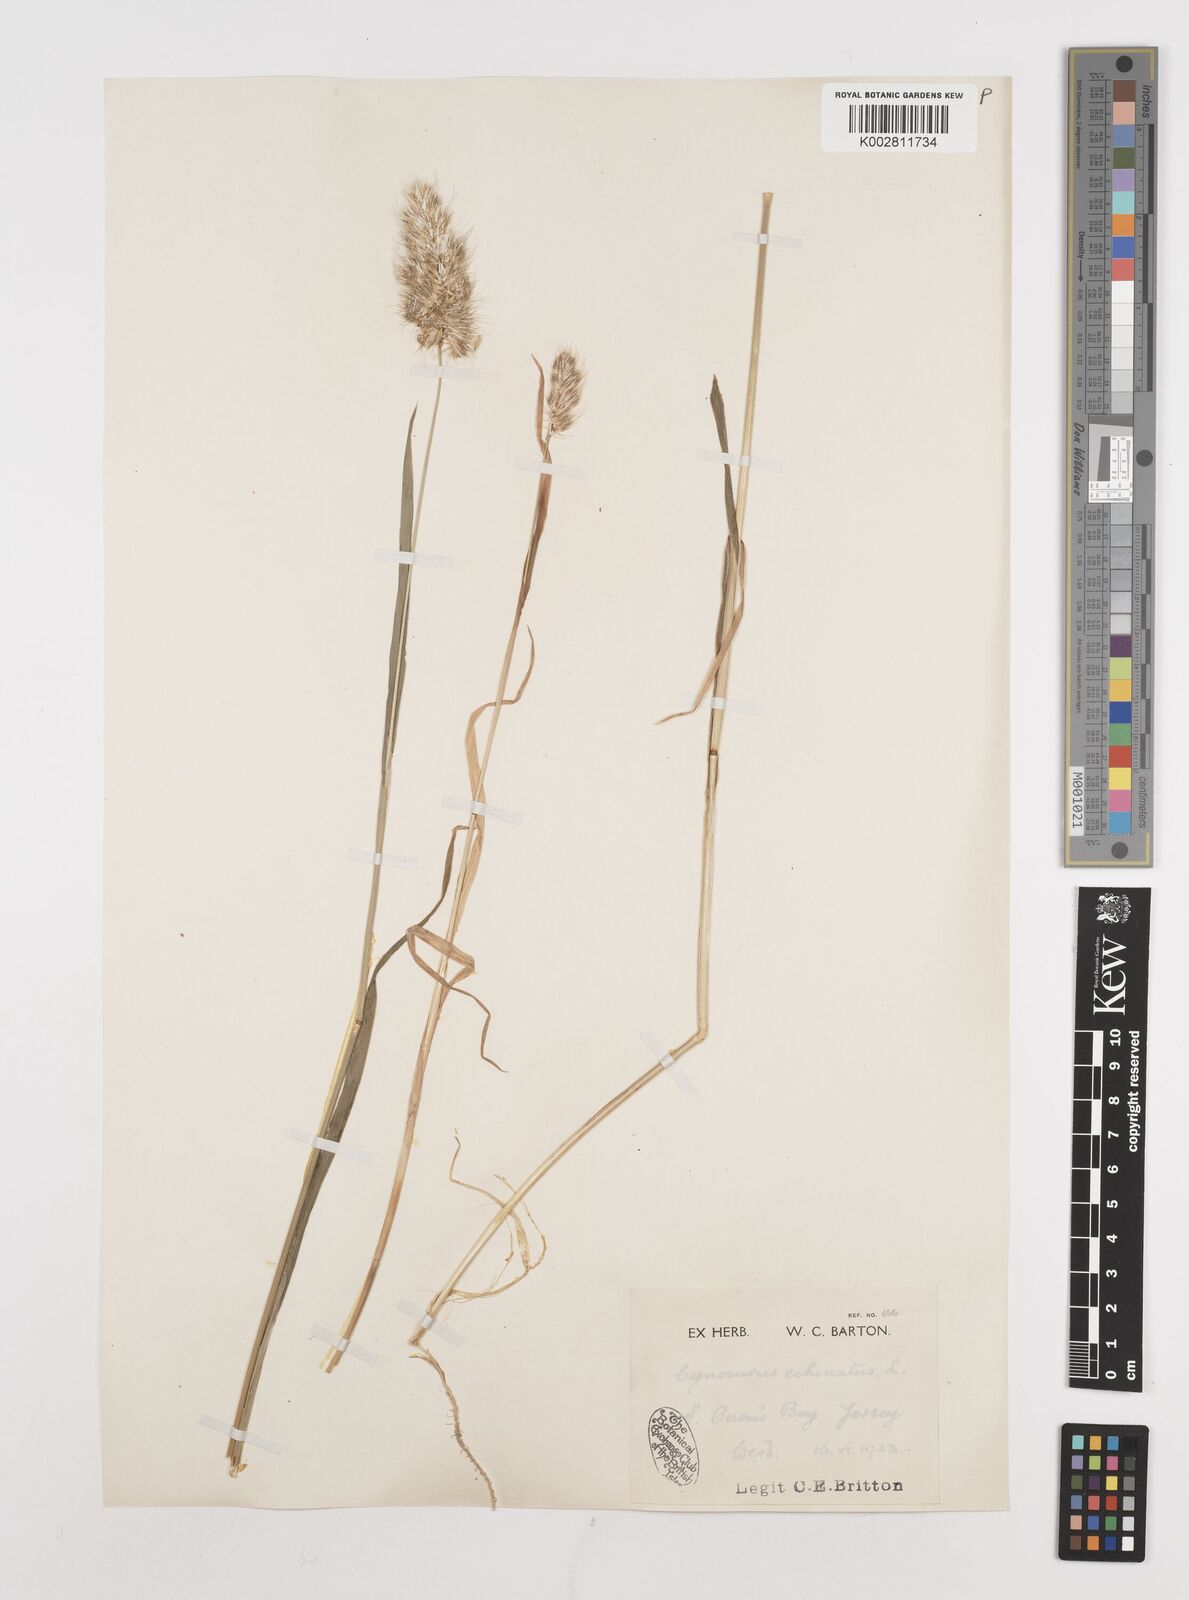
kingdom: Plantae
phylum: Tracheophyta
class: Liliopsida
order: Poales
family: Poaceae
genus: Cynosurus
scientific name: Cynosurus echinatus
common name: Rough dog's-tail
